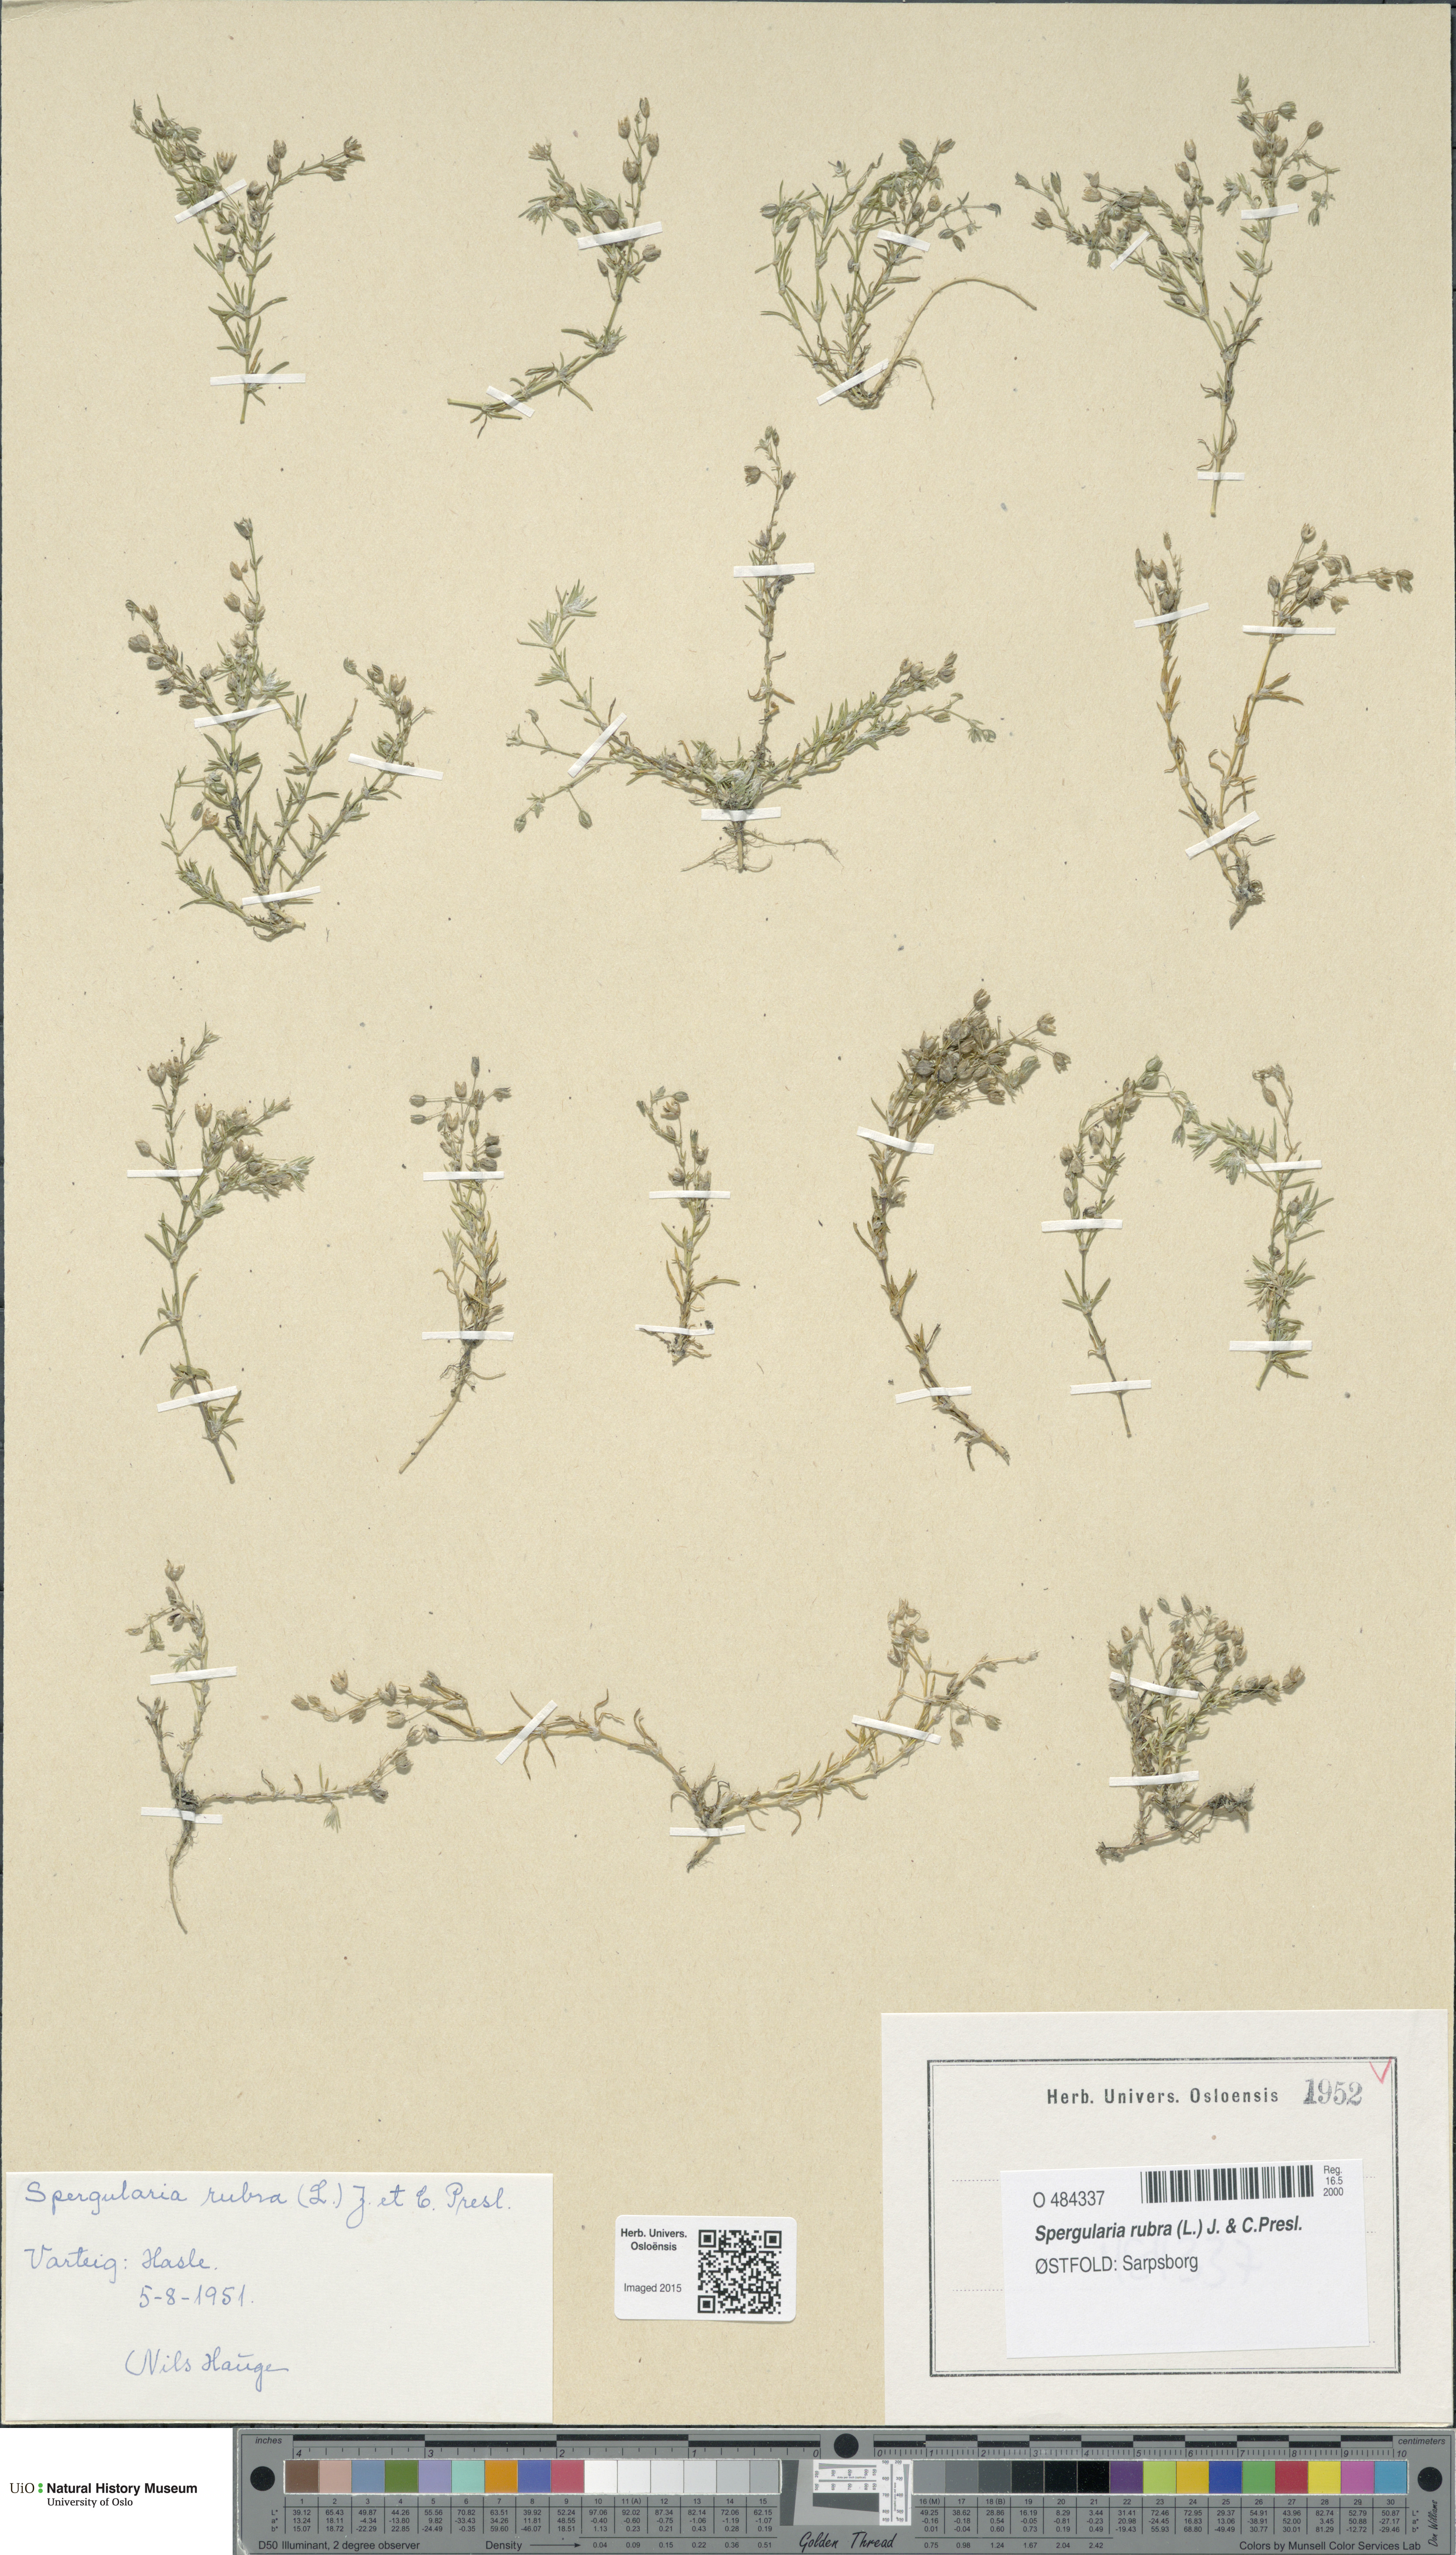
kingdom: Plantae
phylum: Tracheophyta
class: Magnoliopsida
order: Caryophyllales
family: Caryophyllaceae
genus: Spergularia
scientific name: Spergularia rubra
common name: Red sand-spurrey
